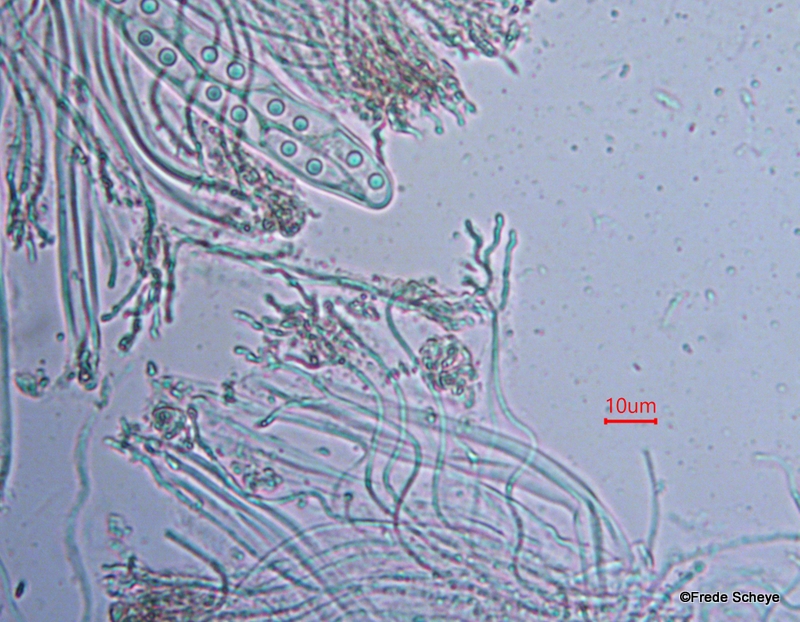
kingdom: Fungi
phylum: Ascomycota
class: Leotiomycetes
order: Chaetomellales
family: Marthamycetaceae
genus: Propolis
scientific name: Propolis farinosa
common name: almindelig vedsprængerskive
